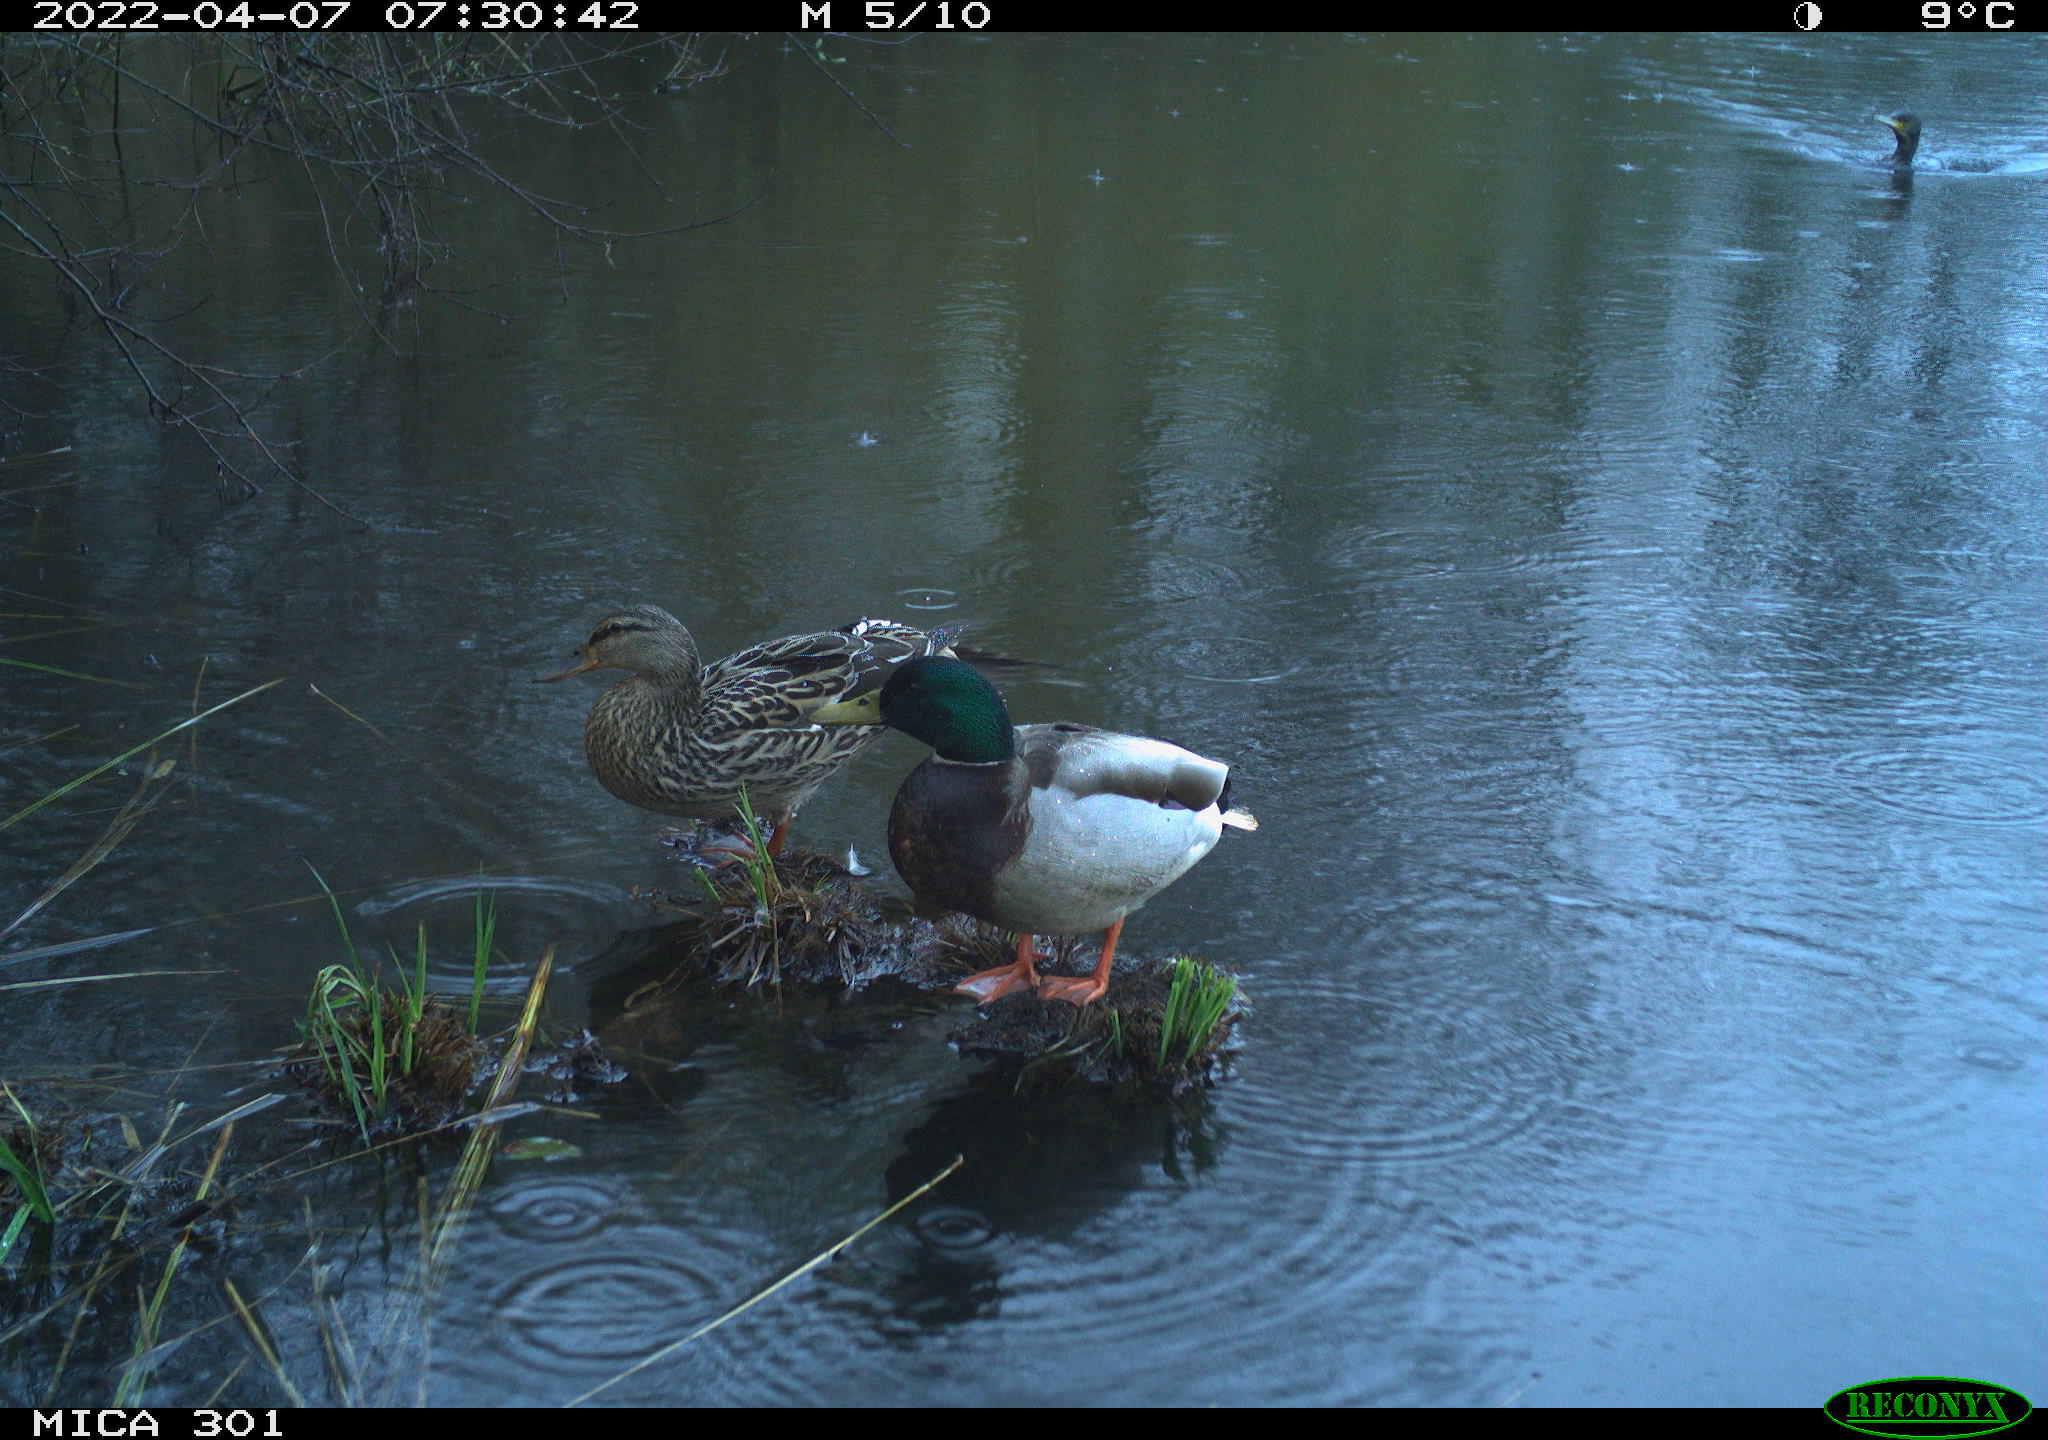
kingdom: Animalia
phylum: Chordata
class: Aves
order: Anseriformes
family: Anatidae
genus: Anas
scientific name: Anas platyrhynchos
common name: Mallard
